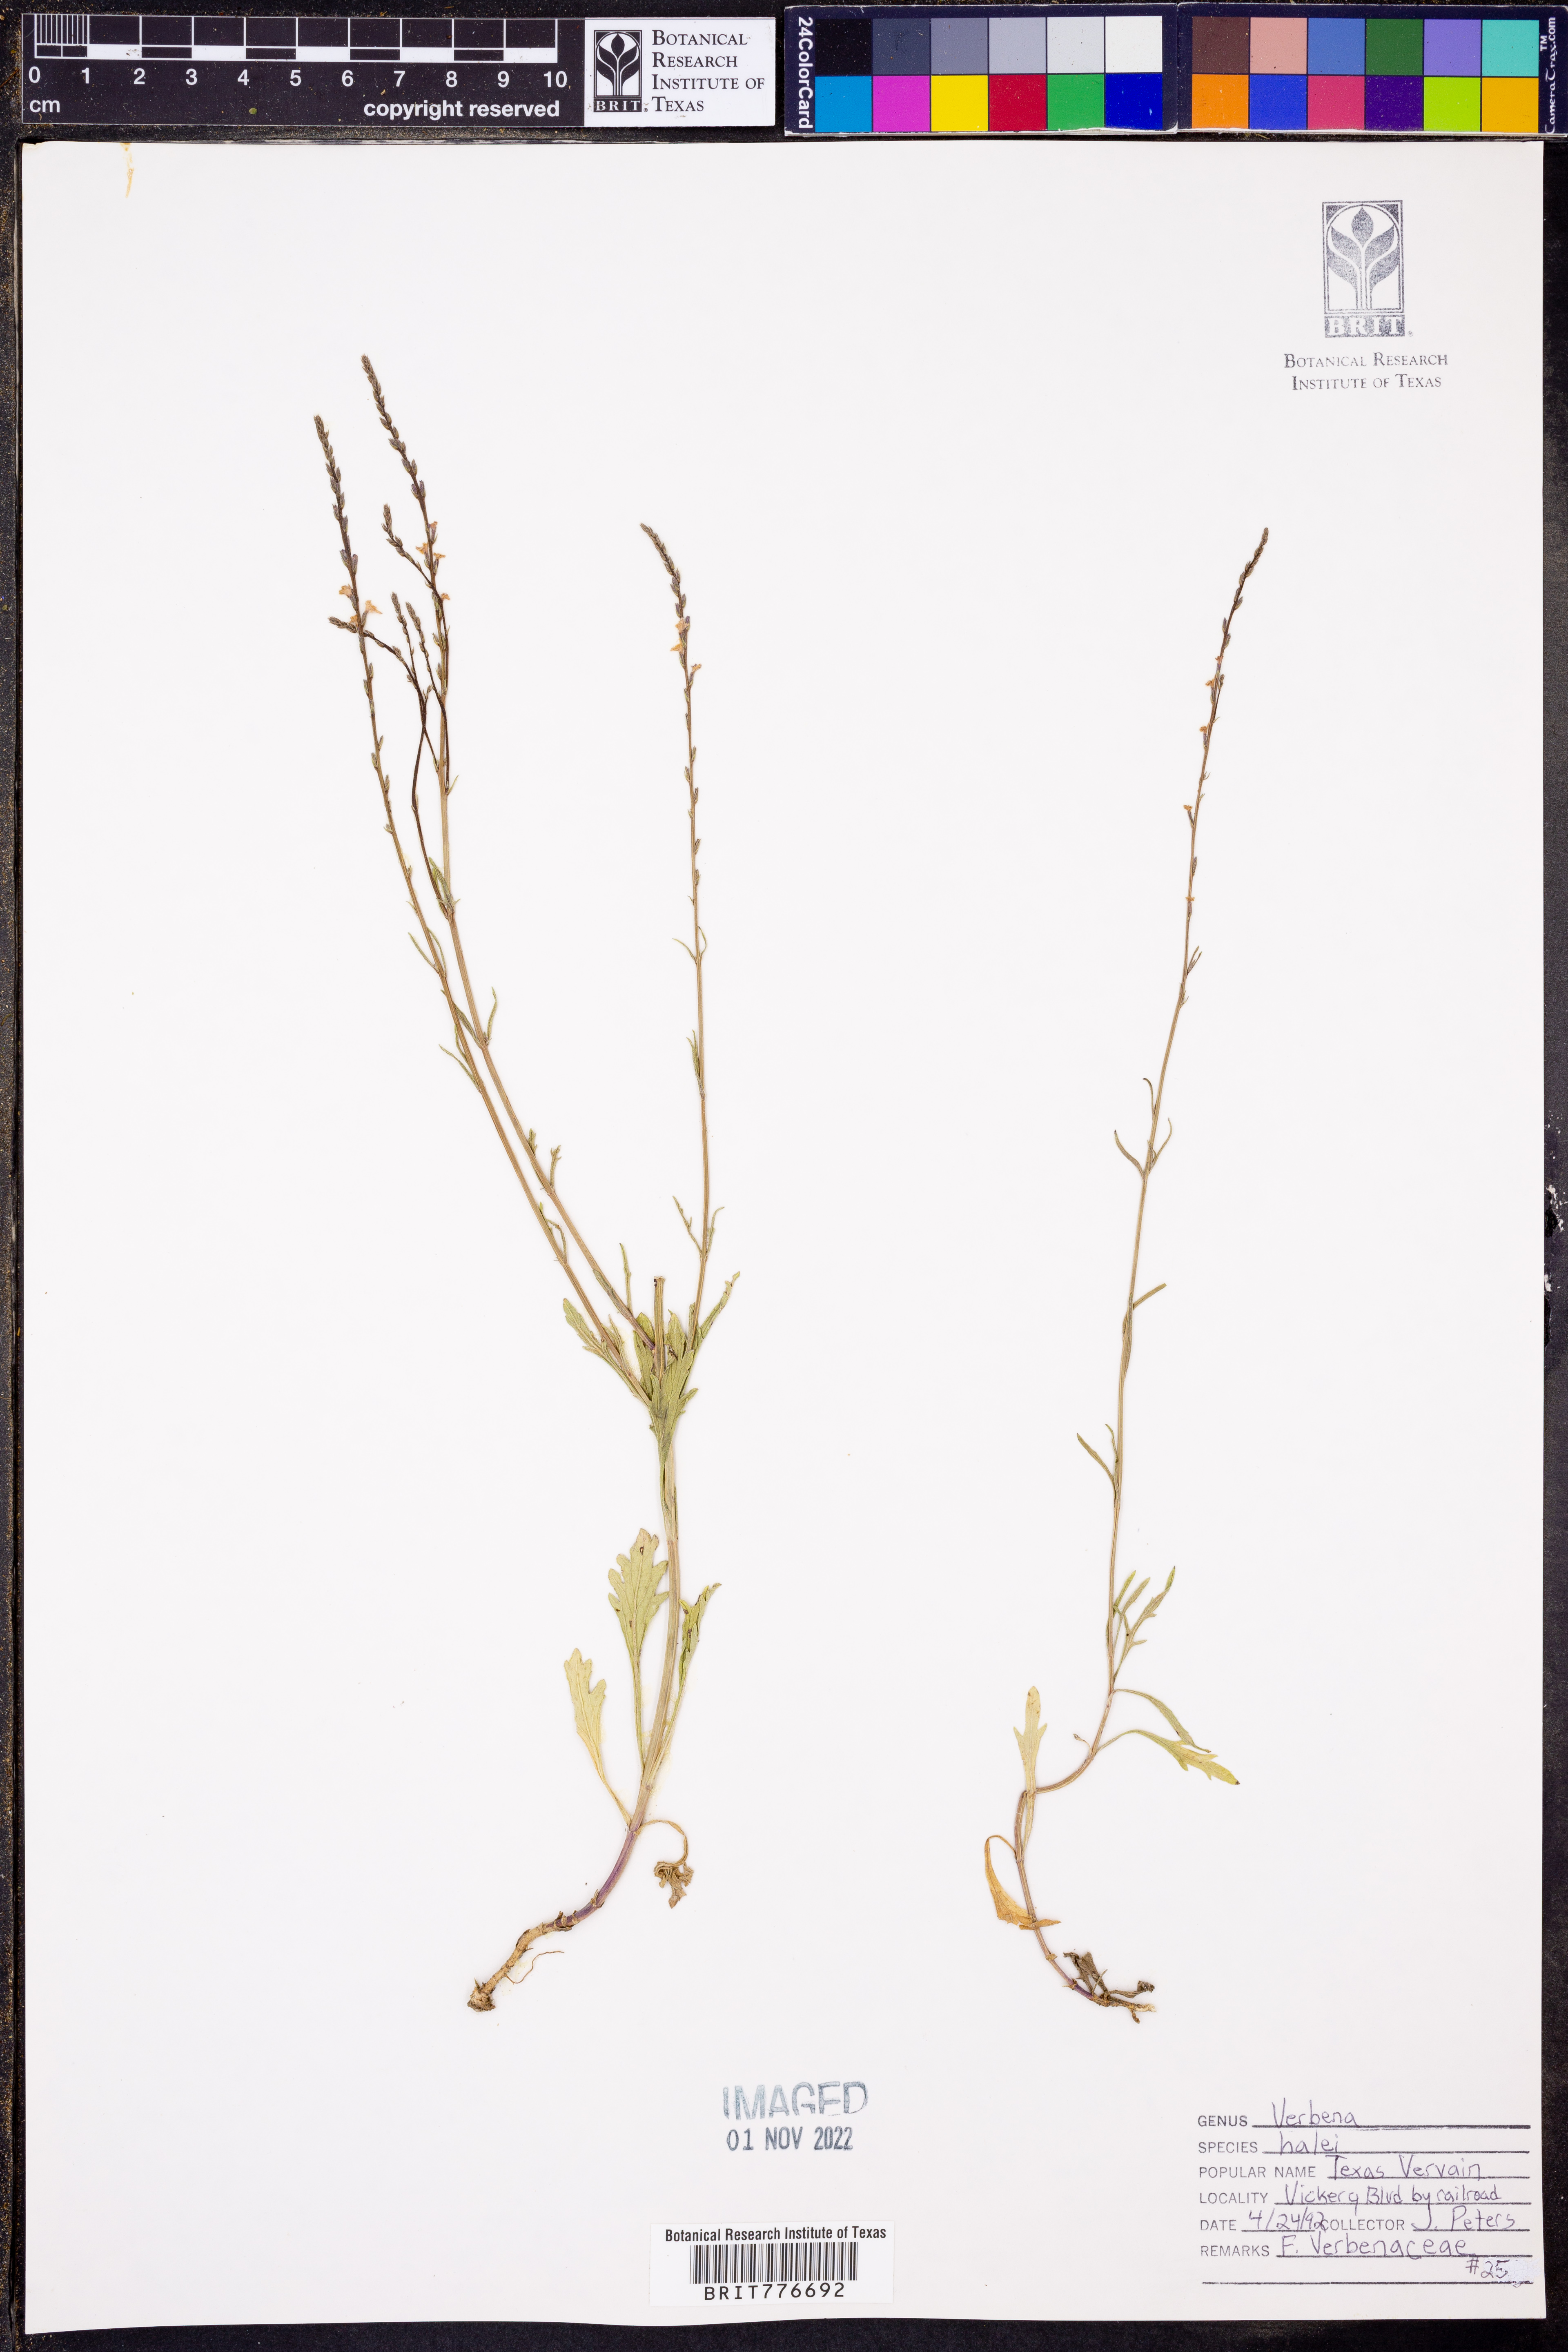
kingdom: Plantae
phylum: Tracheophyta
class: Magnoliopsida
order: Lamiales
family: Verbenaceae
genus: Verbena
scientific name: Verbena halei
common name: Texas vervain
